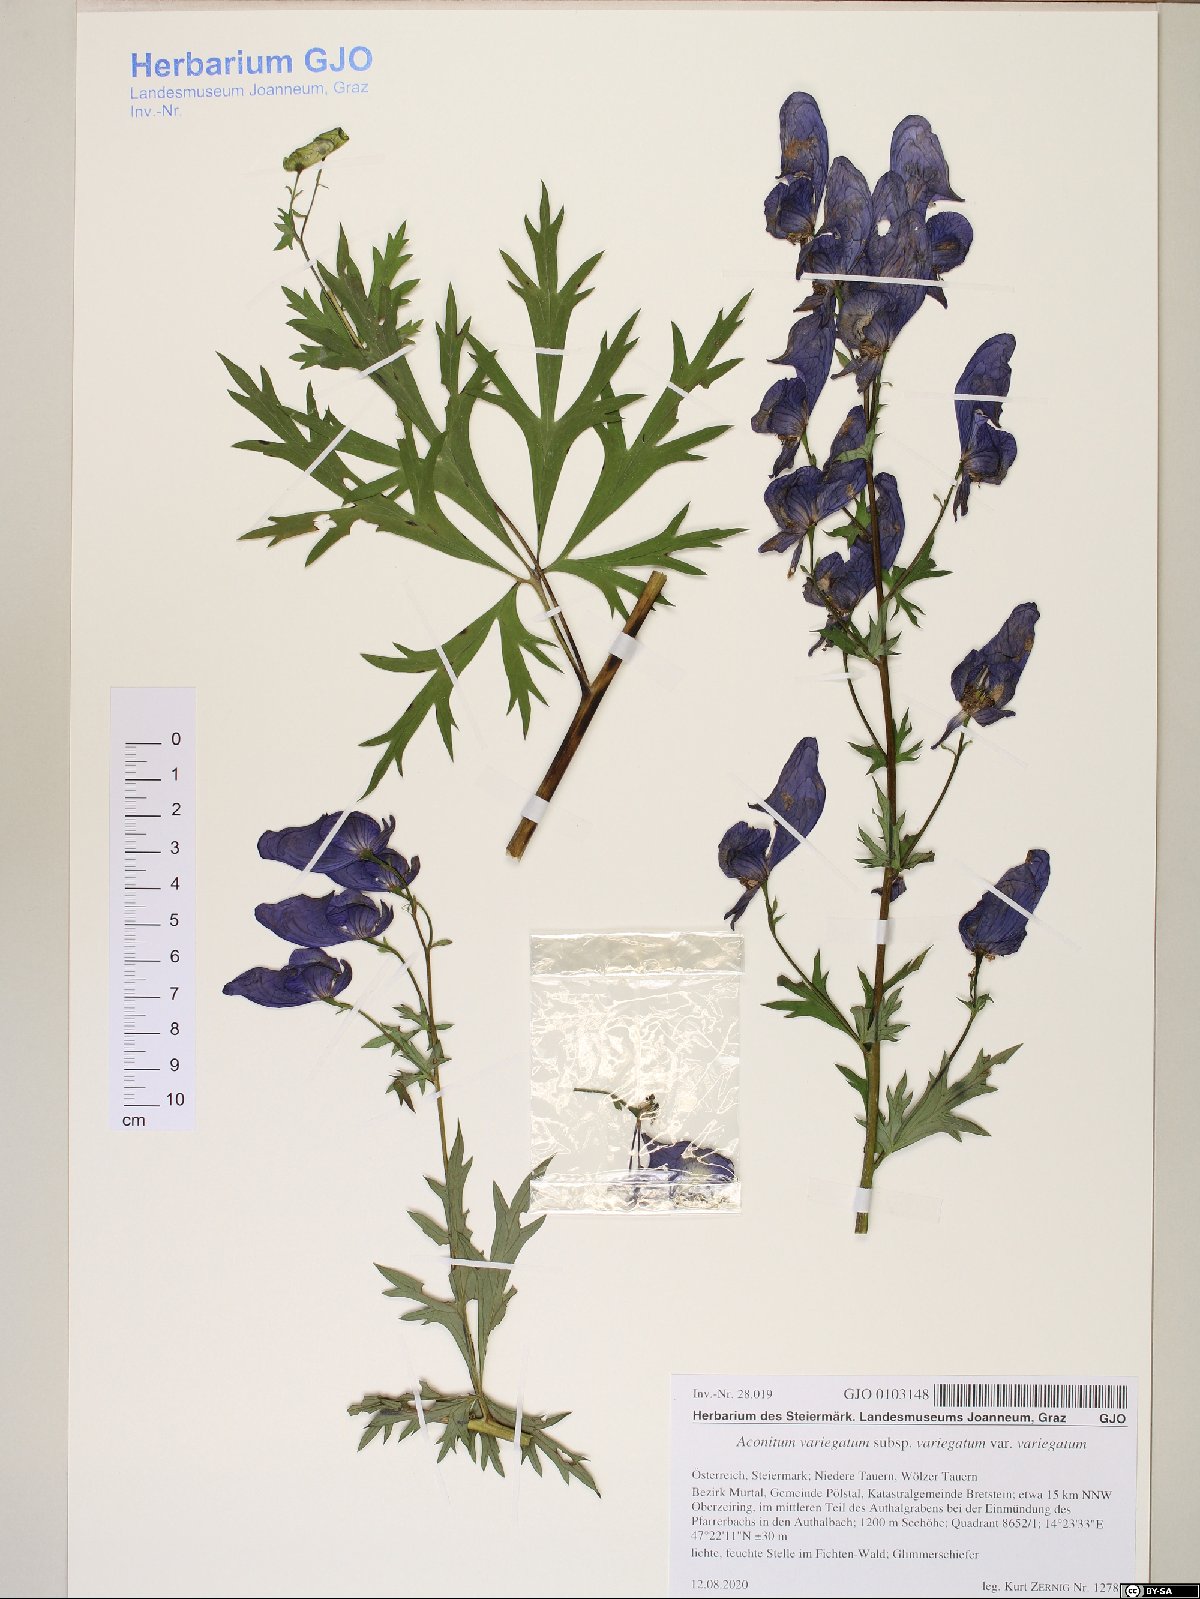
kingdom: Plantae
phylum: Tracheophyta
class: Magnoliopsida
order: Ranunculales
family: Ranunculaceae
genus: Aconitum
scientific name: Aconitum variegatum
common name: Manchurian monkshood
